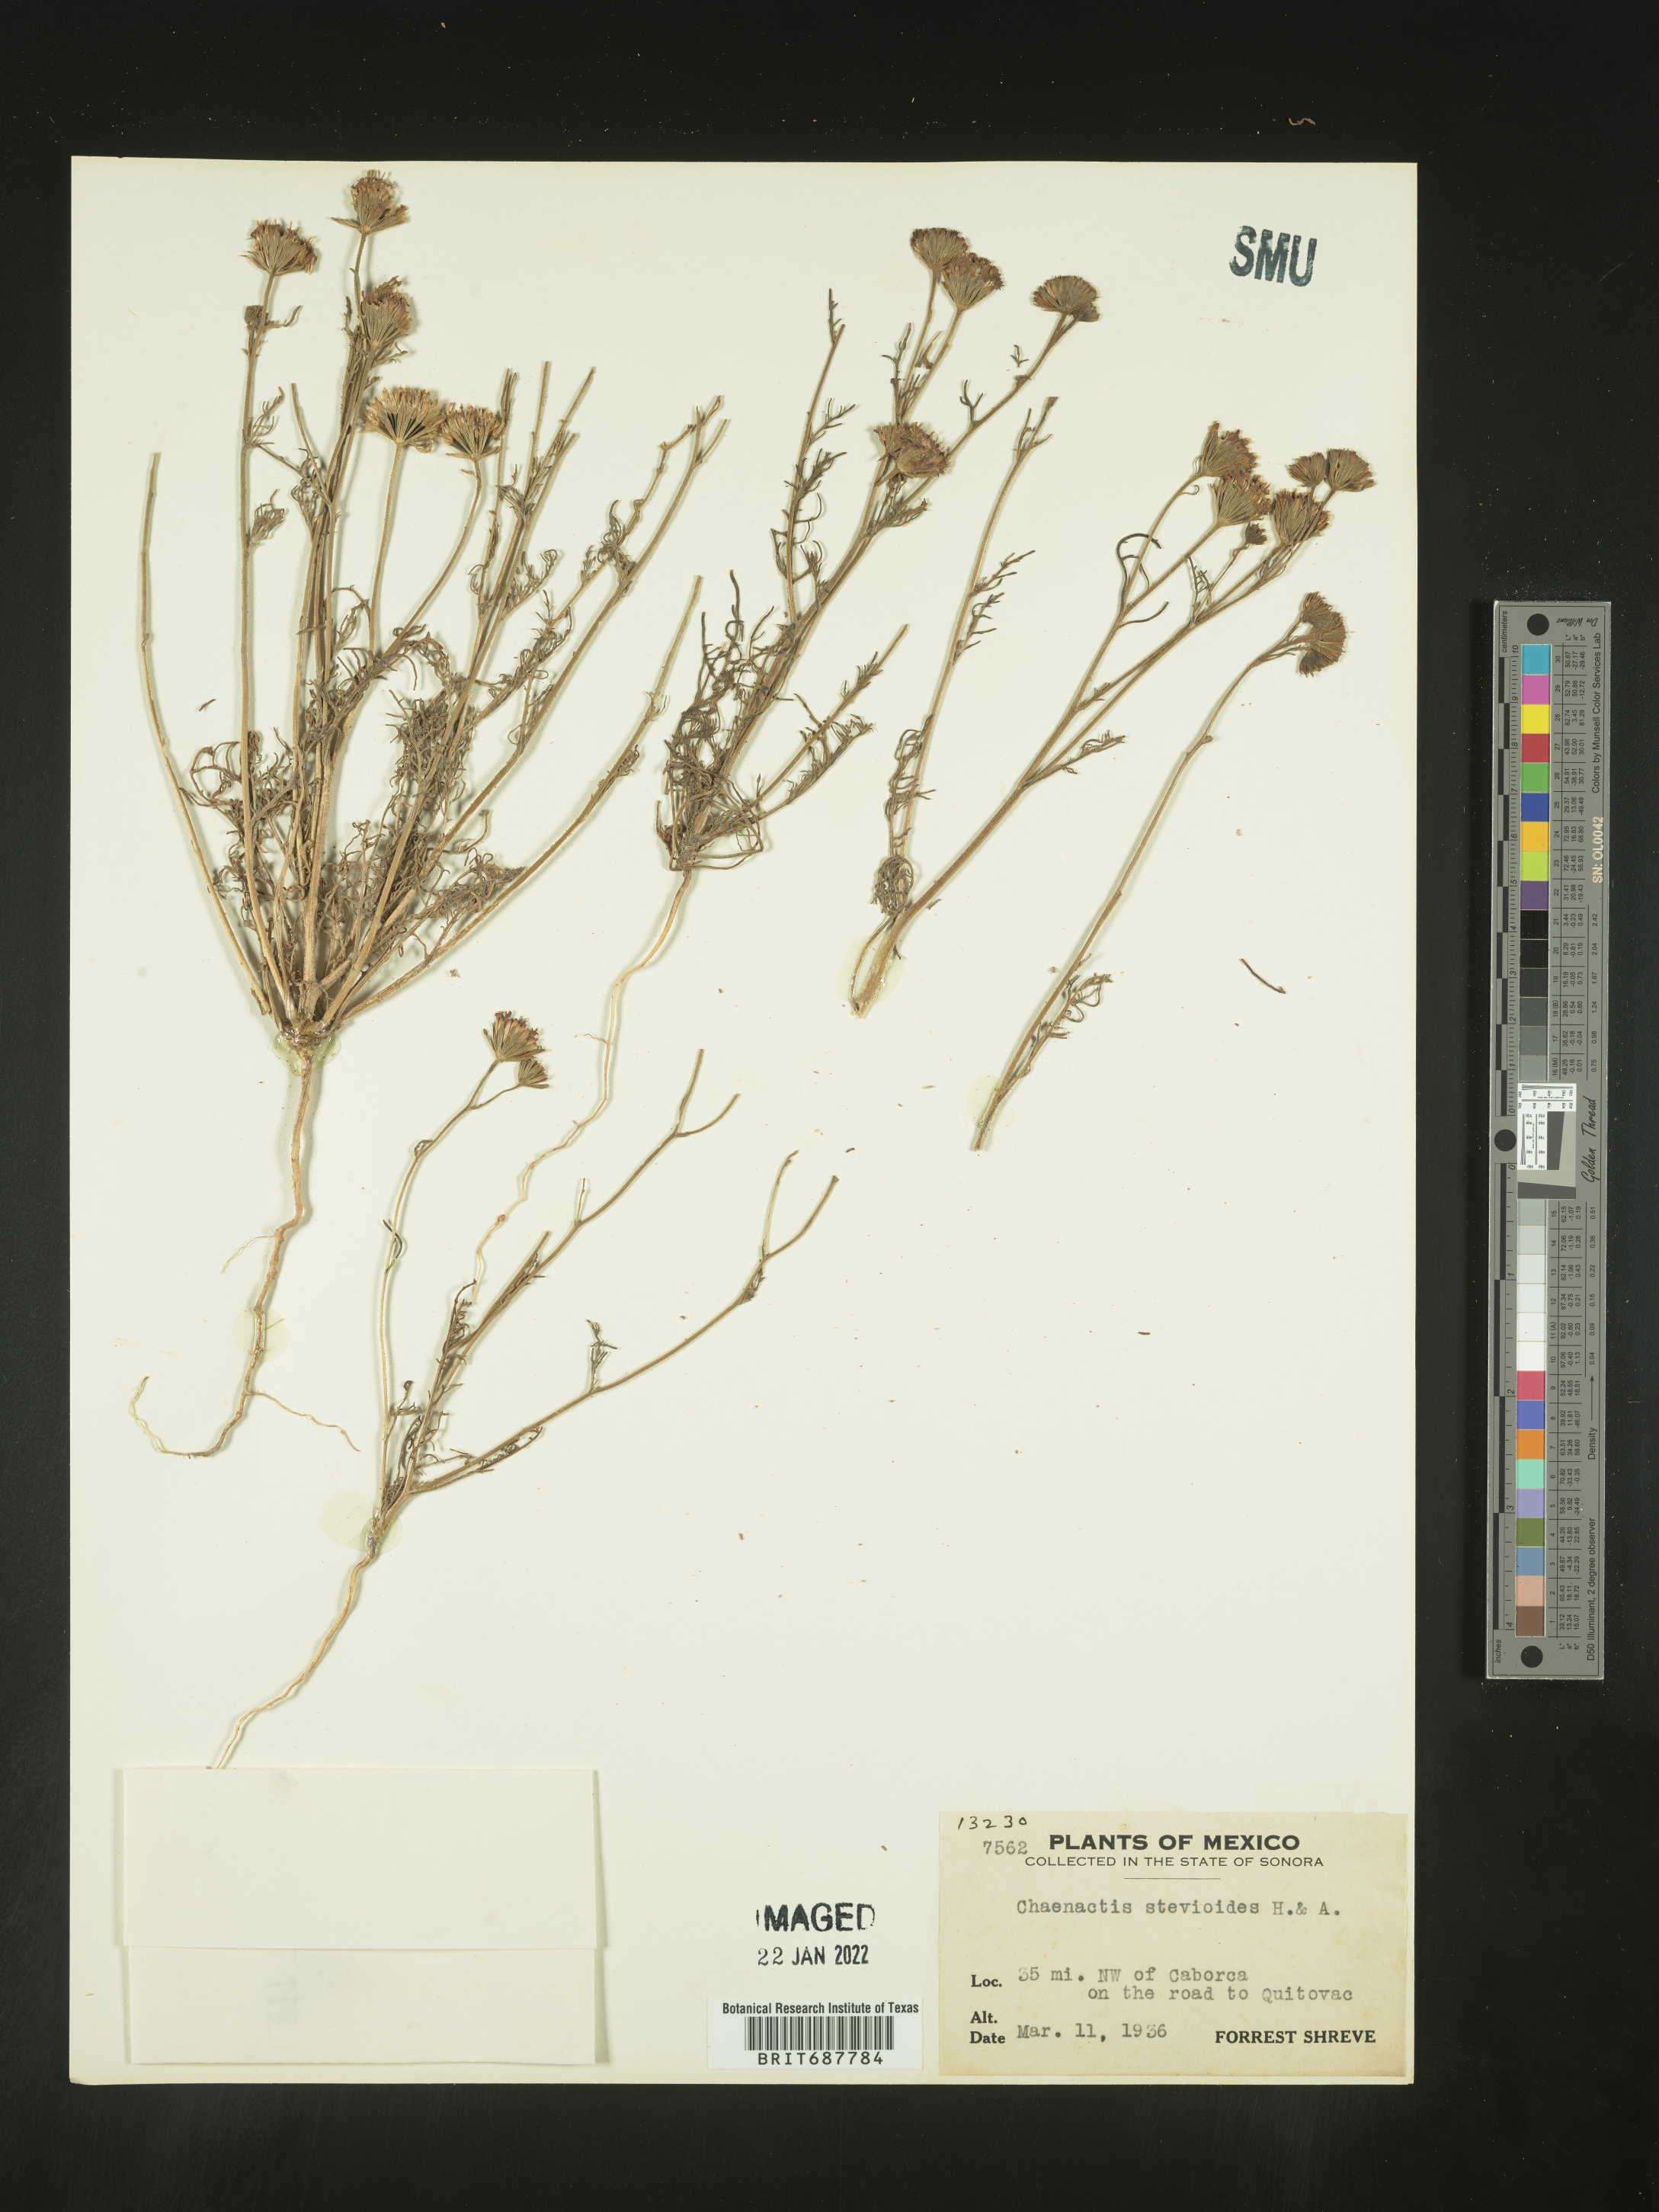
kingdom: Plantae
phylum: Tracheophyta
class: Magnoliopsida
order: Asterales
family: Asteraceae
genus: Chaenactis
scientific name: Chaenactis
